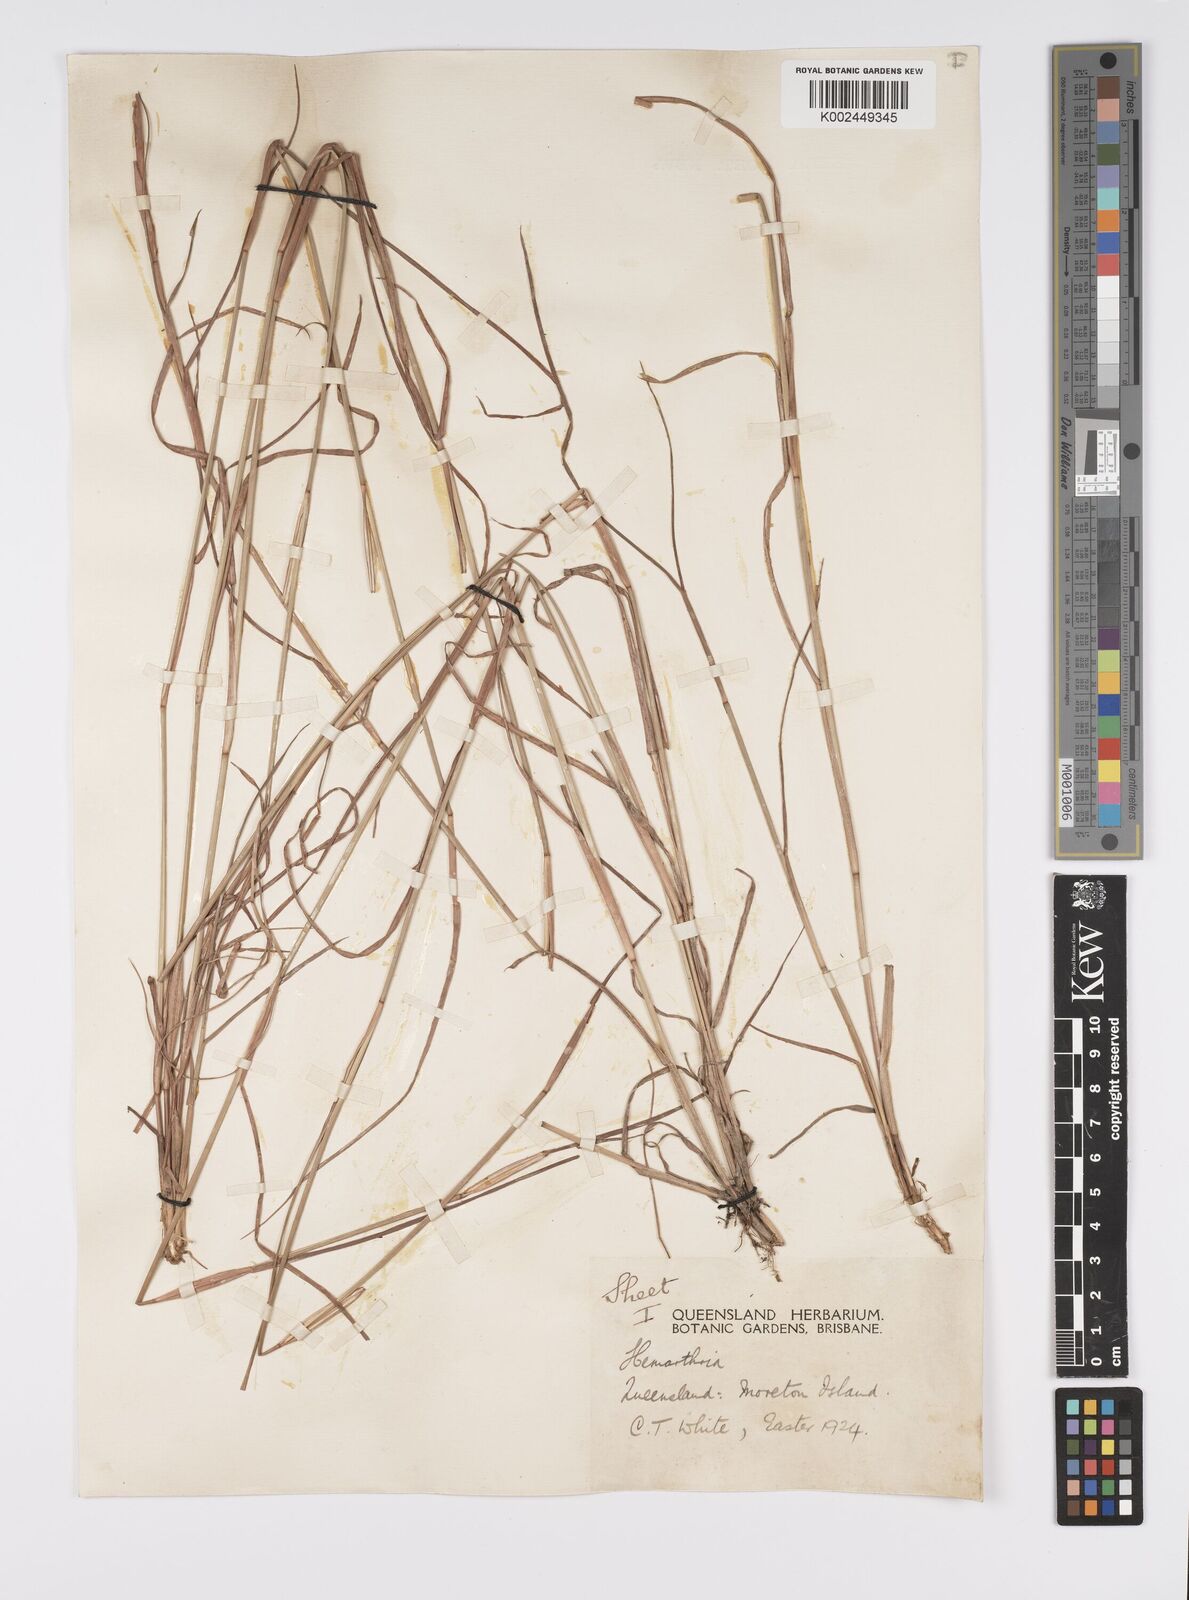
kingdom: Plantae
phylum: Tracheophyta
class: Liliopsida
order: Poales
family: Poaceae
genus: Hemarthria
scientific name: Hemarthria uncinata
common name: Matgrass
